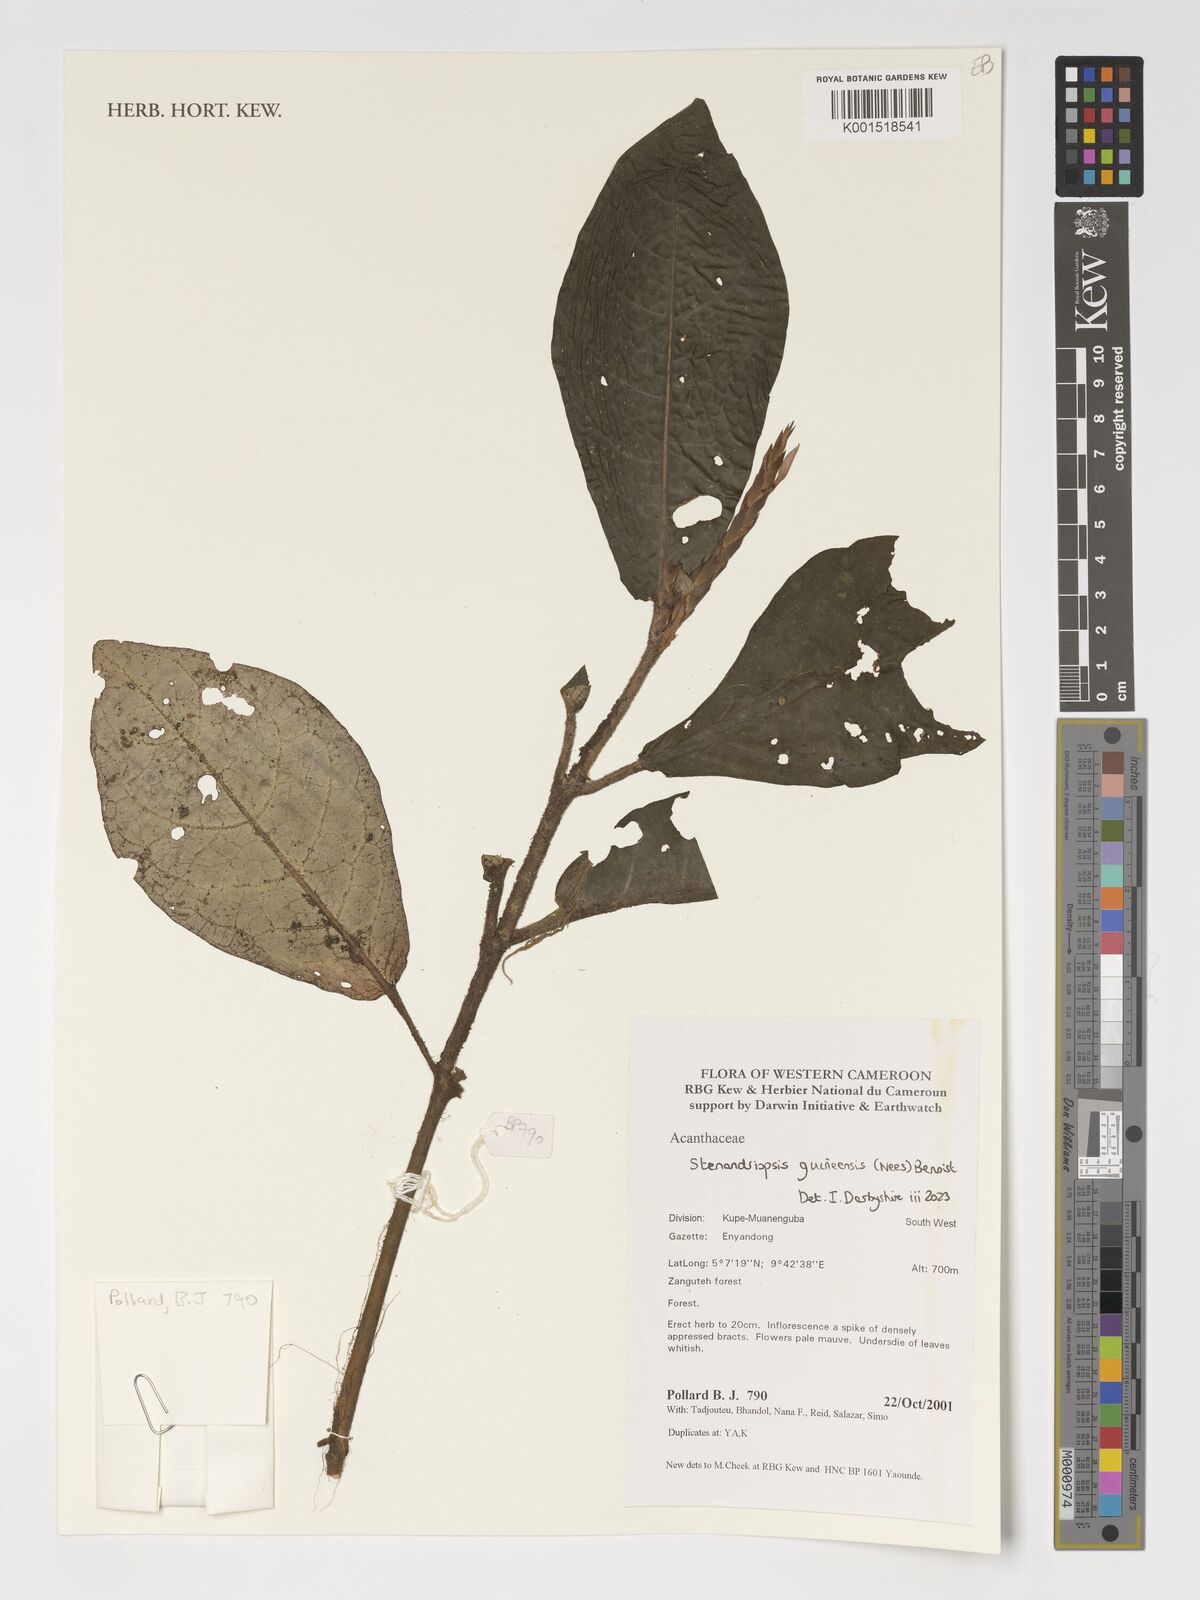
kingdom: Plantae
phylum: Tracheophyta
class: Magnoliopsida
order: Lamiales
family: Acanthaceae
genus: Stenandriopsis
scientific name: Stenandriopsis guineensis
